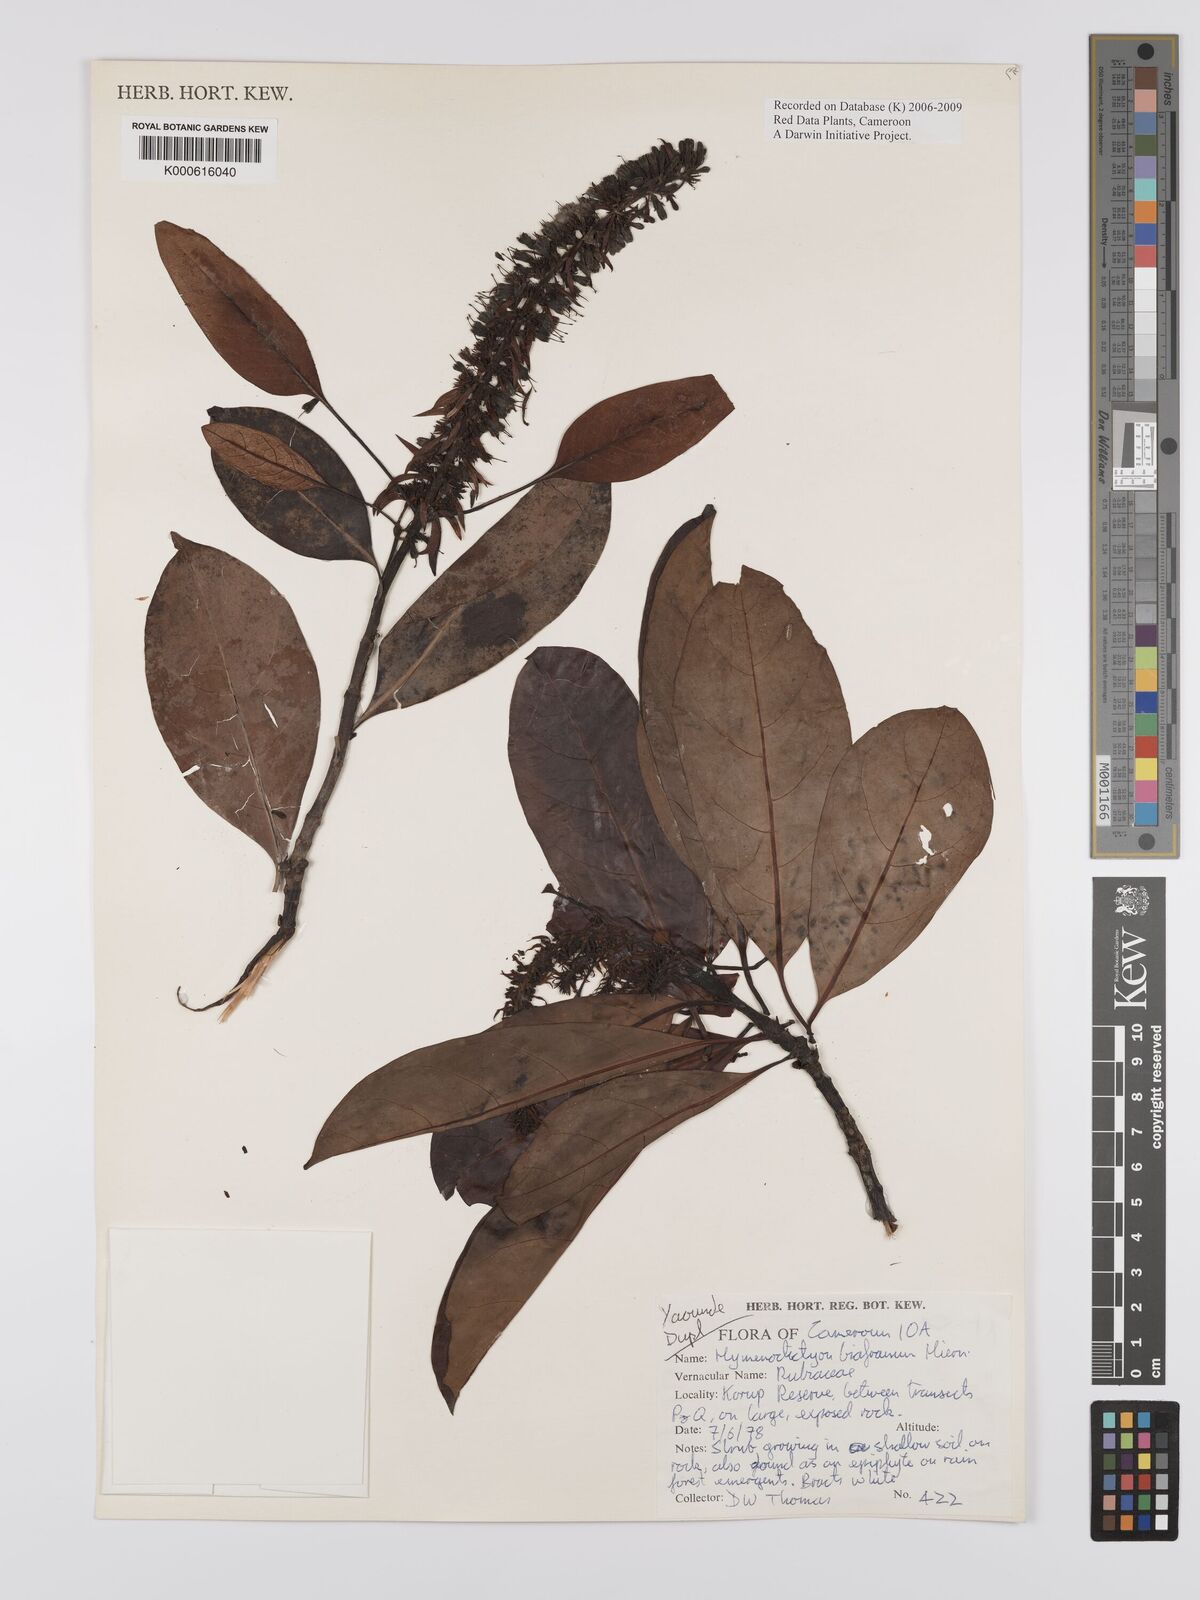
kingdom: Plantae
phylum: Tracheophyta
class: Magnoliopsida
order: Gentianales
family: Rubiaceae
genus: Hymenodictyon
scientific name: Hymenodictyon biafranum
